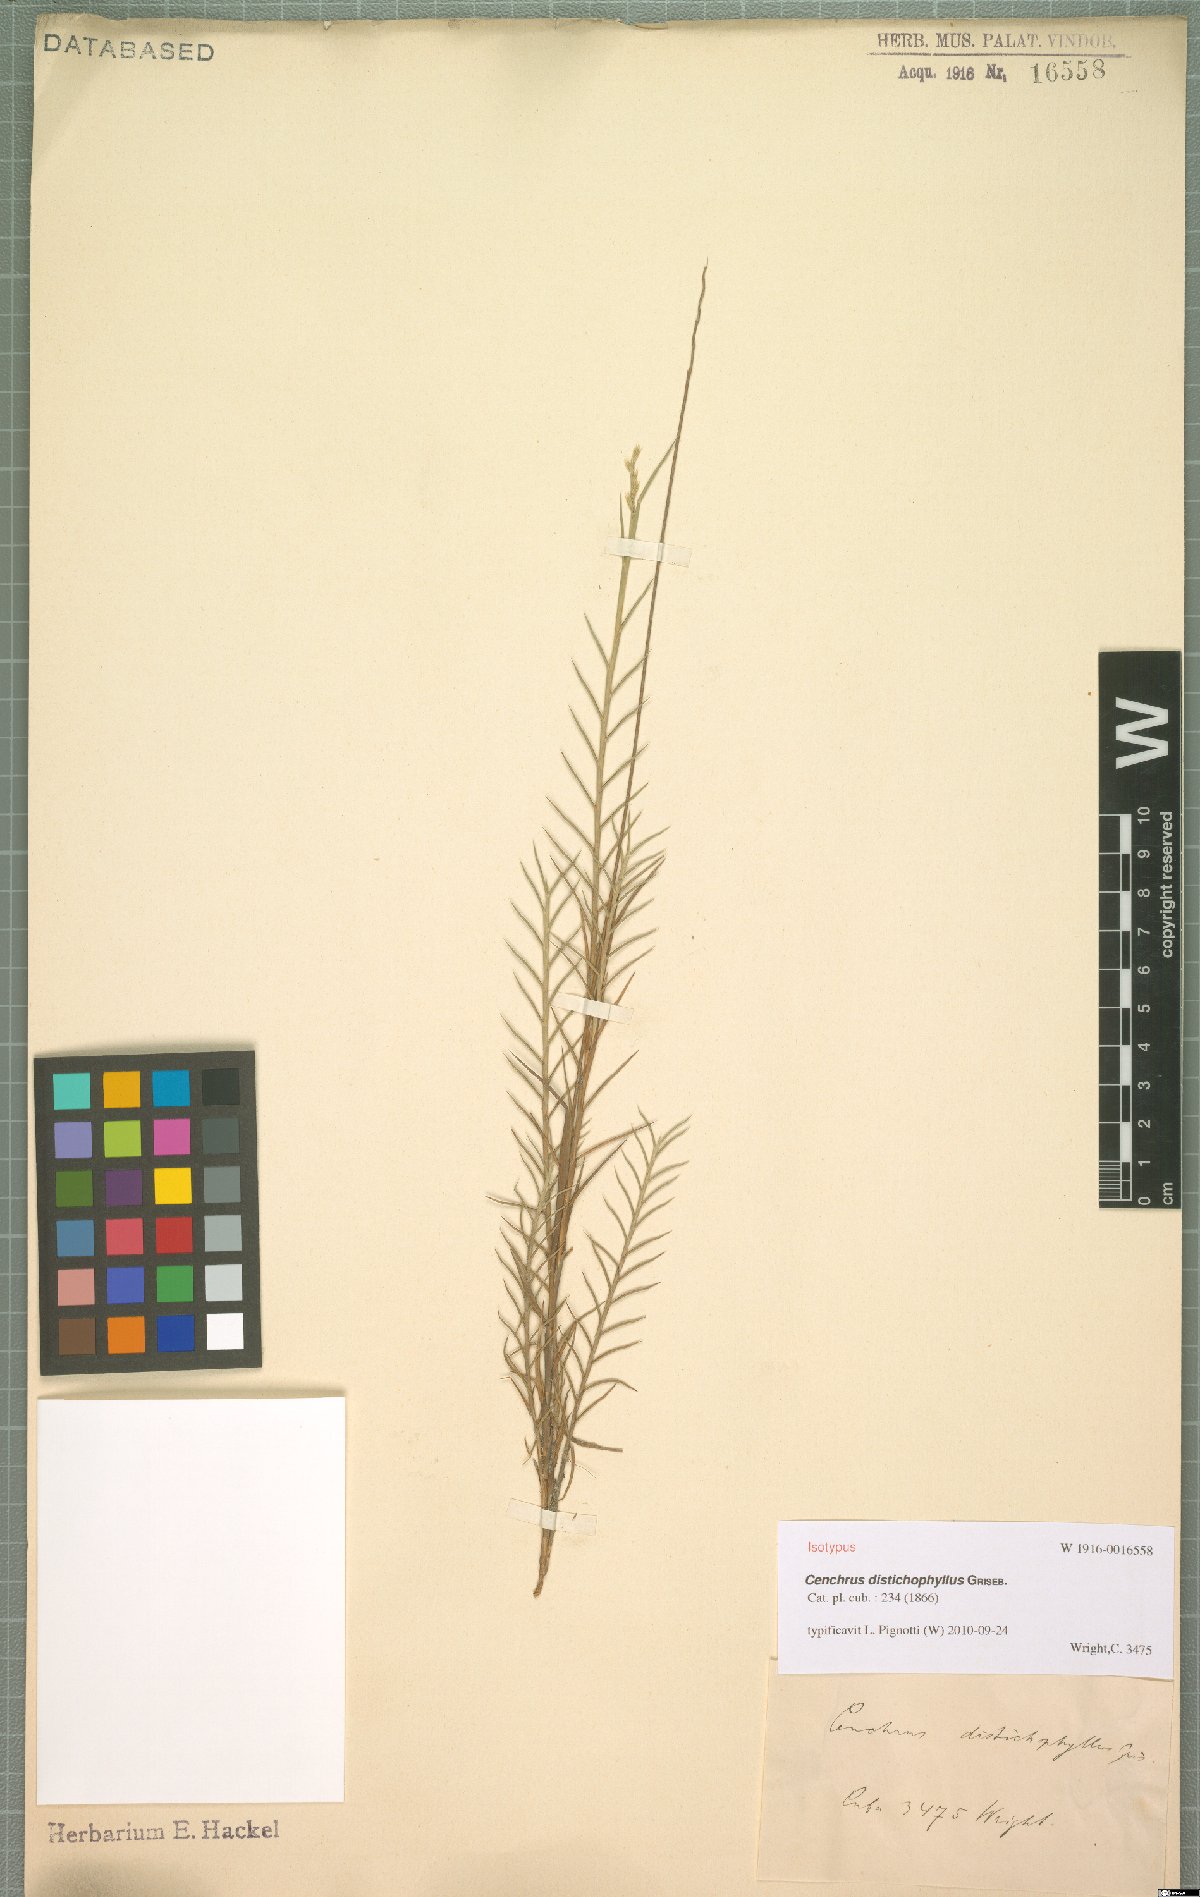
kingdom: Plantae
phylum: Tracheophyta
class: Liliopsida
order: Poales
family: Poaceae
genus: Cenchrus
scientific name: Cenchrus distichophyllus
